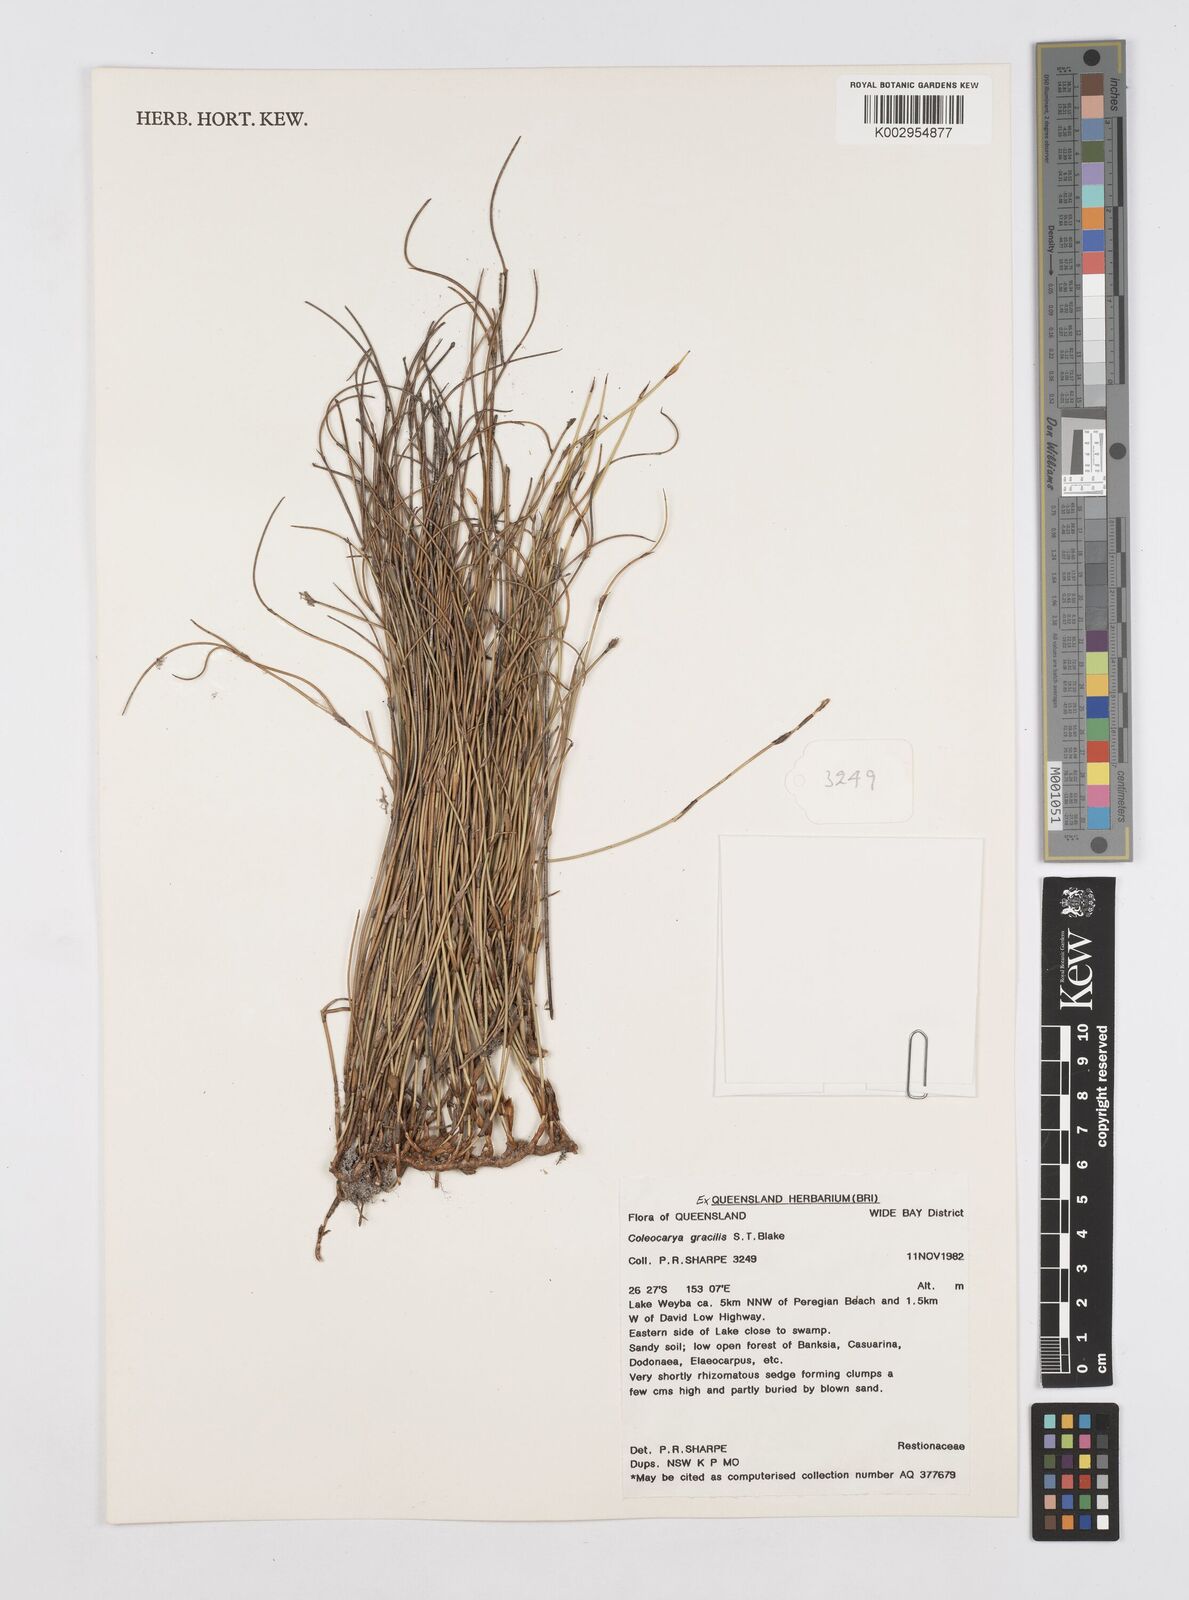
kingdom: Plantae
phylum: Tracheophyta
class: Liliopsida
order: Poales
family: Restionaceae
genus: Coleocarya
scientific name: Coleocarya gracilis
